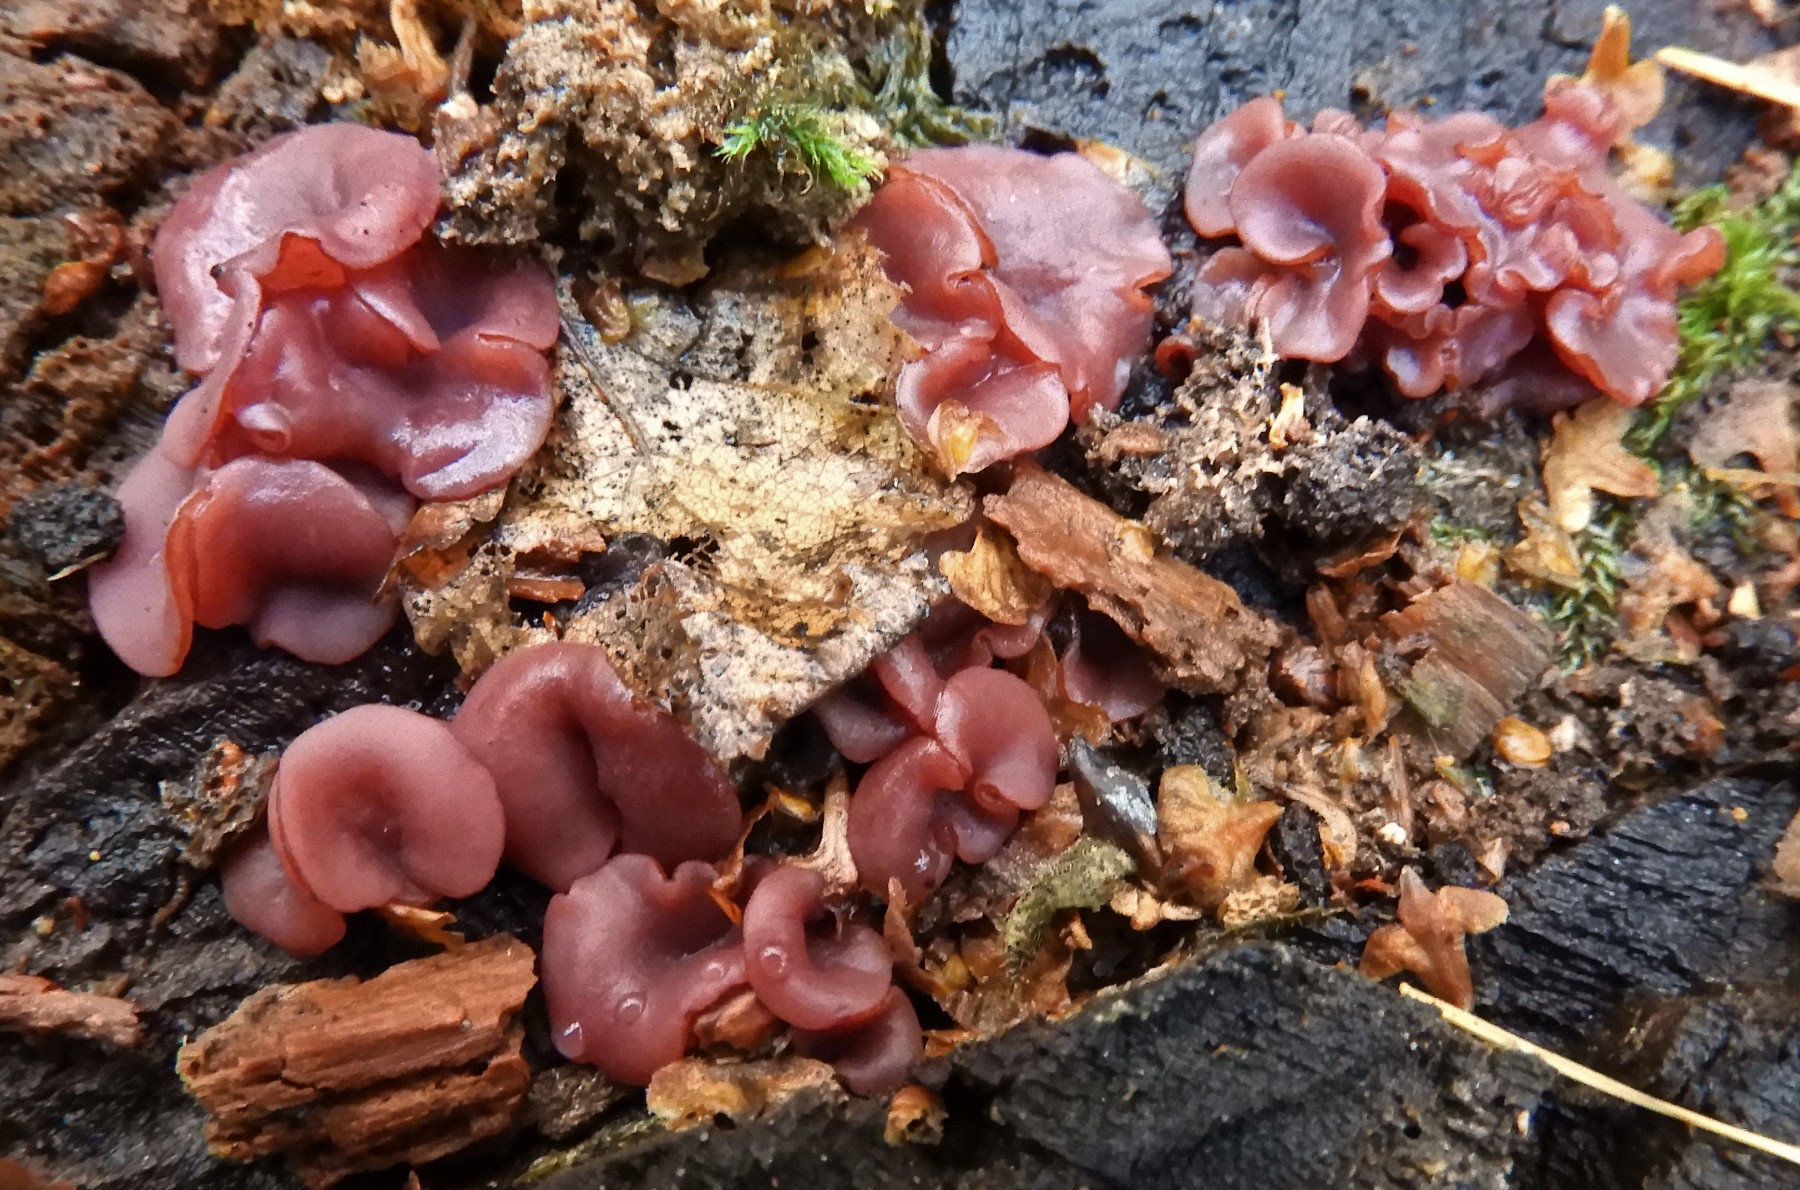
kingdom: Fungi
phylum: Ascomycota
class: Leotiomycetes
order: Helotiales
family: Gelatinodiscaceae
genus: Ascocoryne
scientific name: Ascocoryne cylichnium
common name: stor sejskive
